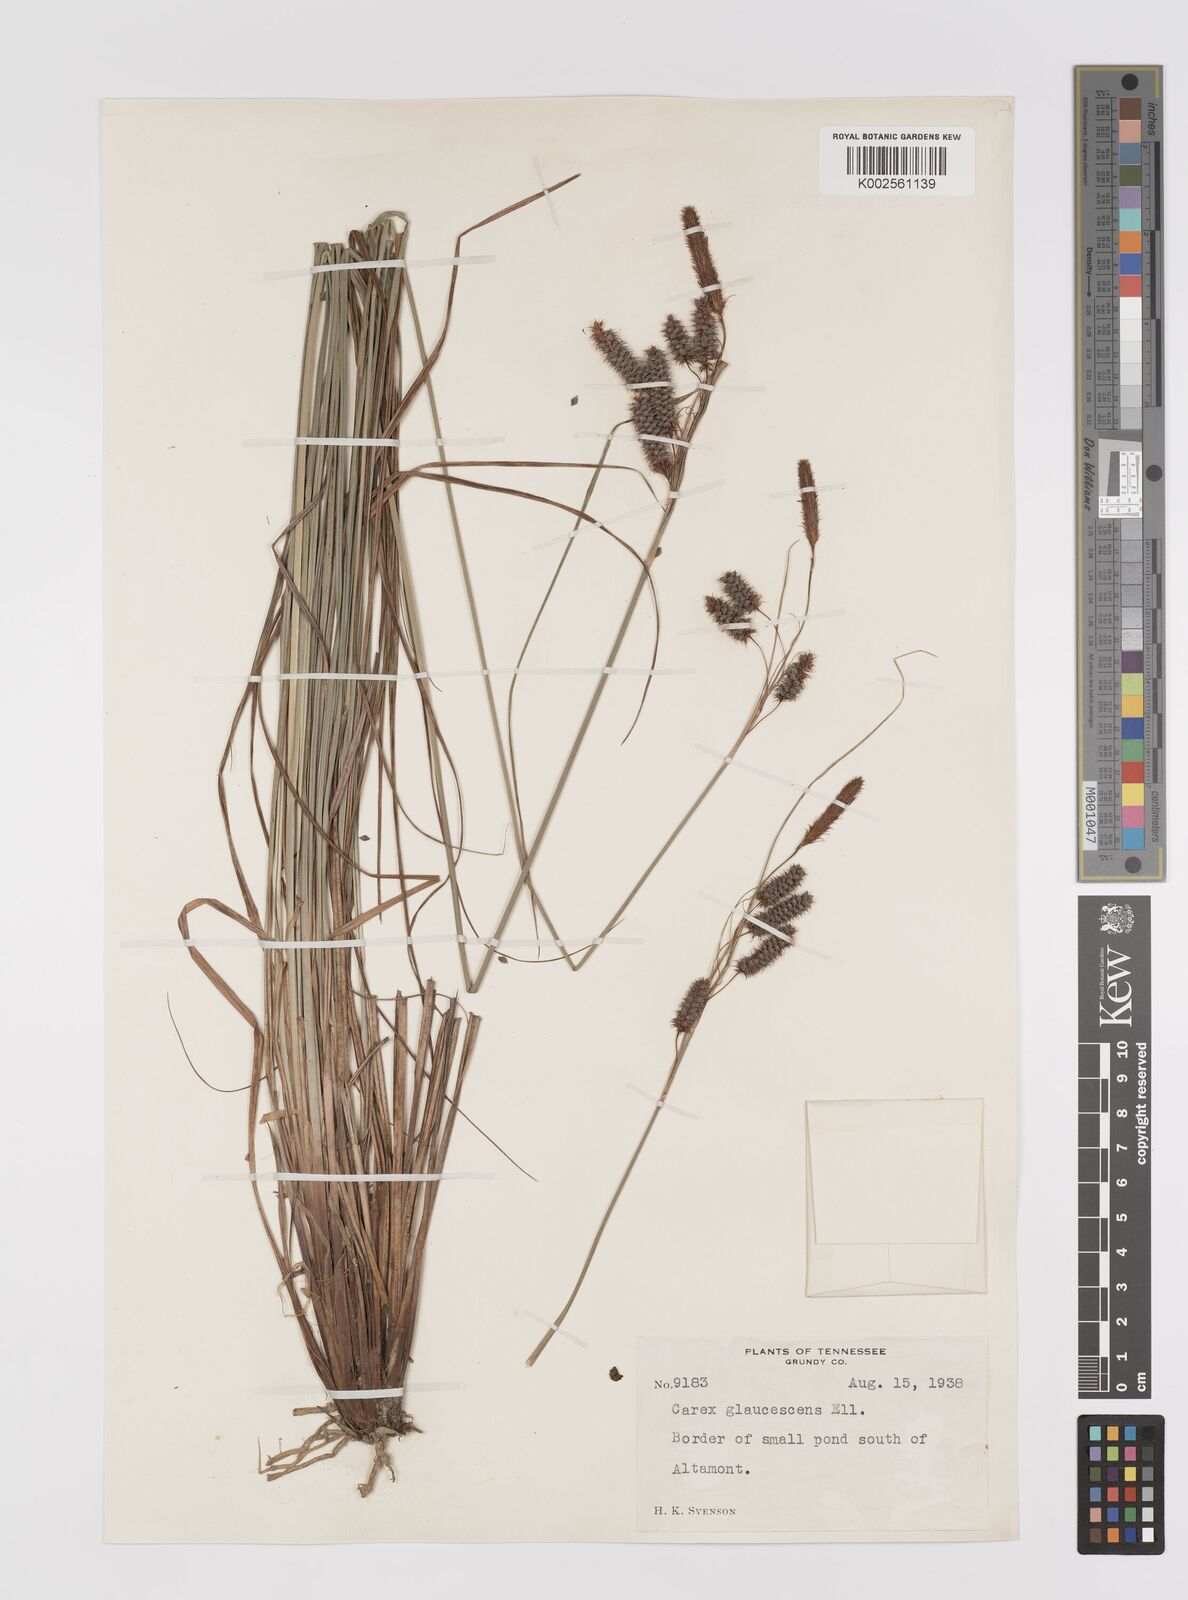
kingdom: Plantae
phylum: Tracheophyta
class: Liliopsida
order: Poales
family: Cyperaceae
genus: Carex
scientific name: Carex glaucescens
